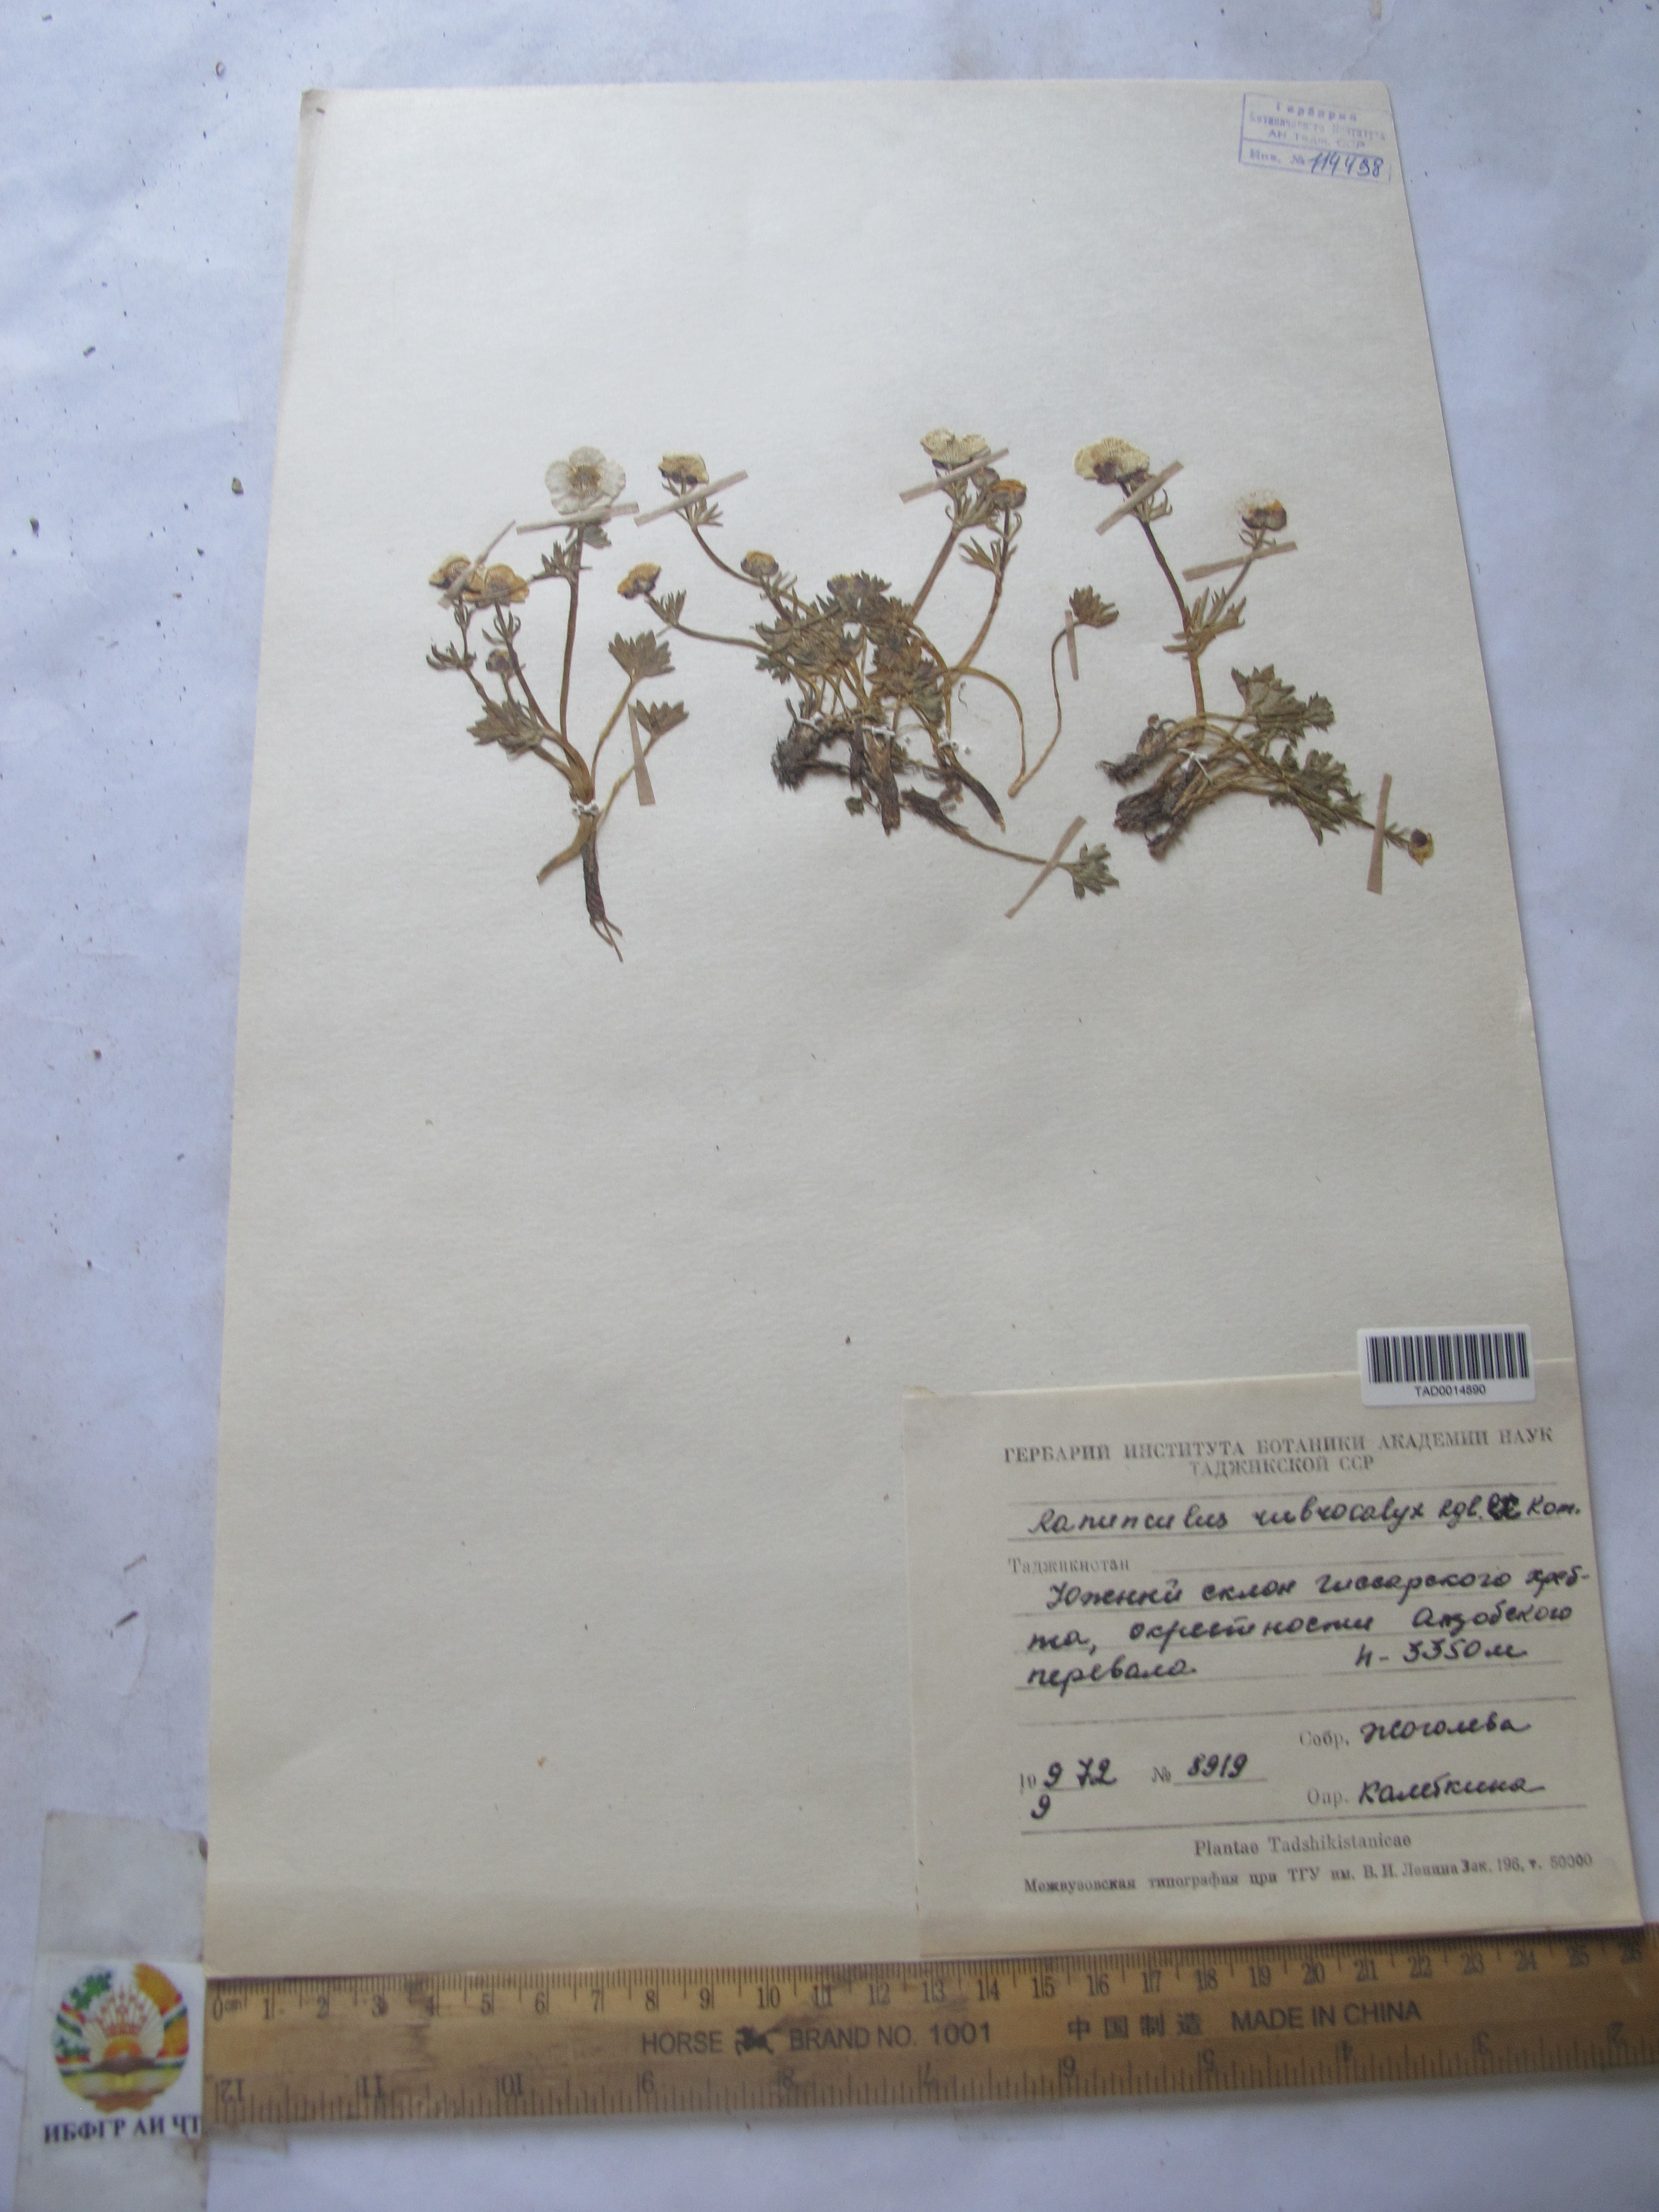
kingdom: Plantae
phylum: Tracheophyta
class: Magnoliopsida
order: Ranunculales
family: Ranunculaceae
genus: Ranunculus
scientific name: Ranunculus rubrocalyx
